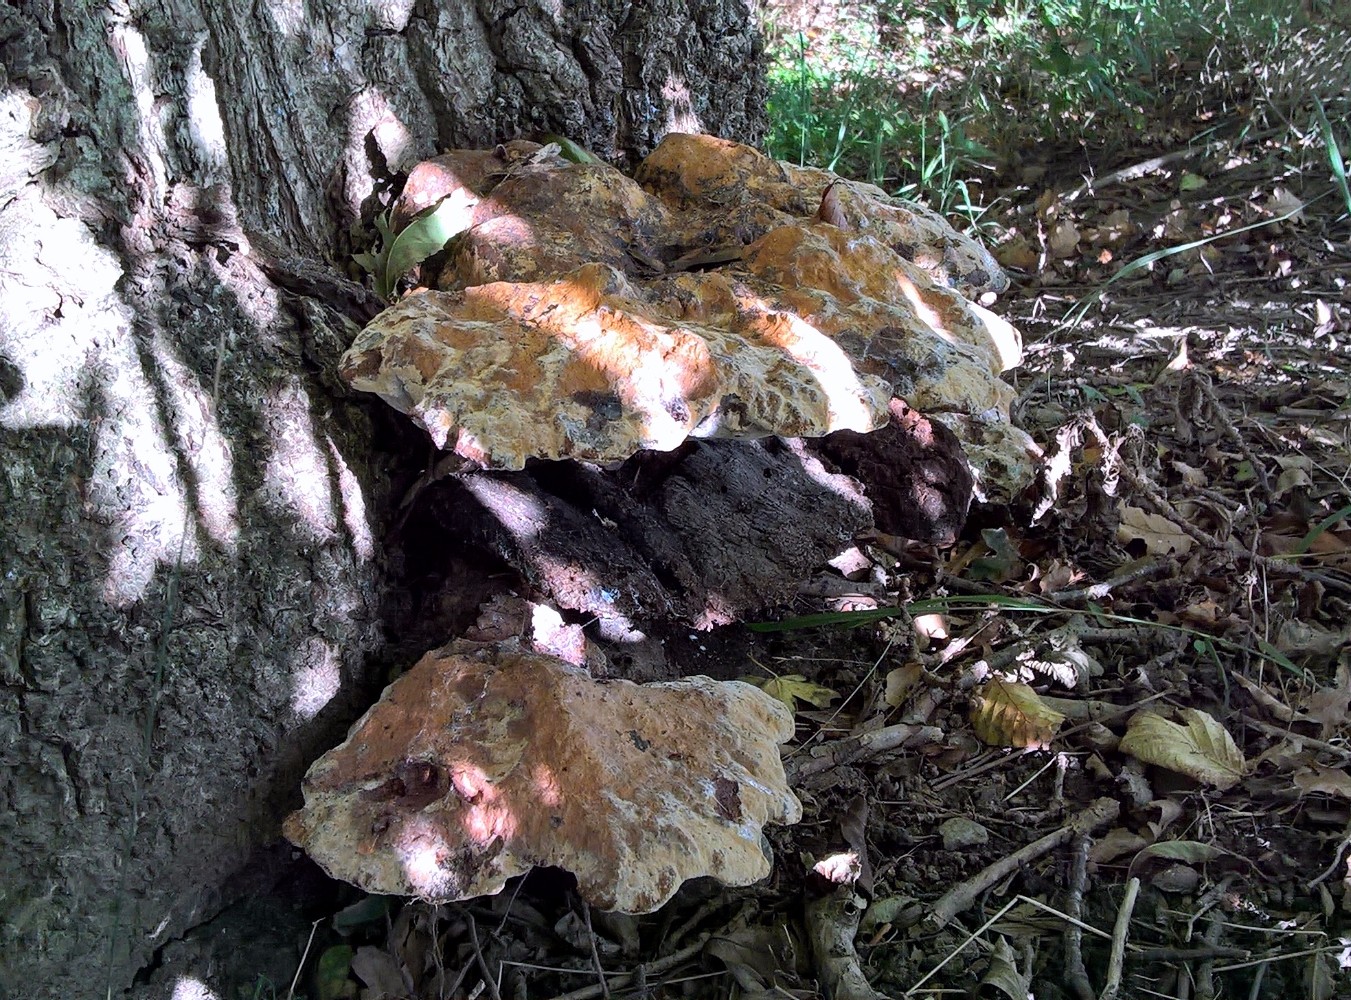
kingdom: Fungi
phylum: Basidiomycota
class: Agaricomycetes
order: Hymenochaetales
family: Hymenochaetaceae
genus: Pseudoinonotus
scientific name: Pseudoinonotus dryadeus
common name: ege-spejlporesvamp
